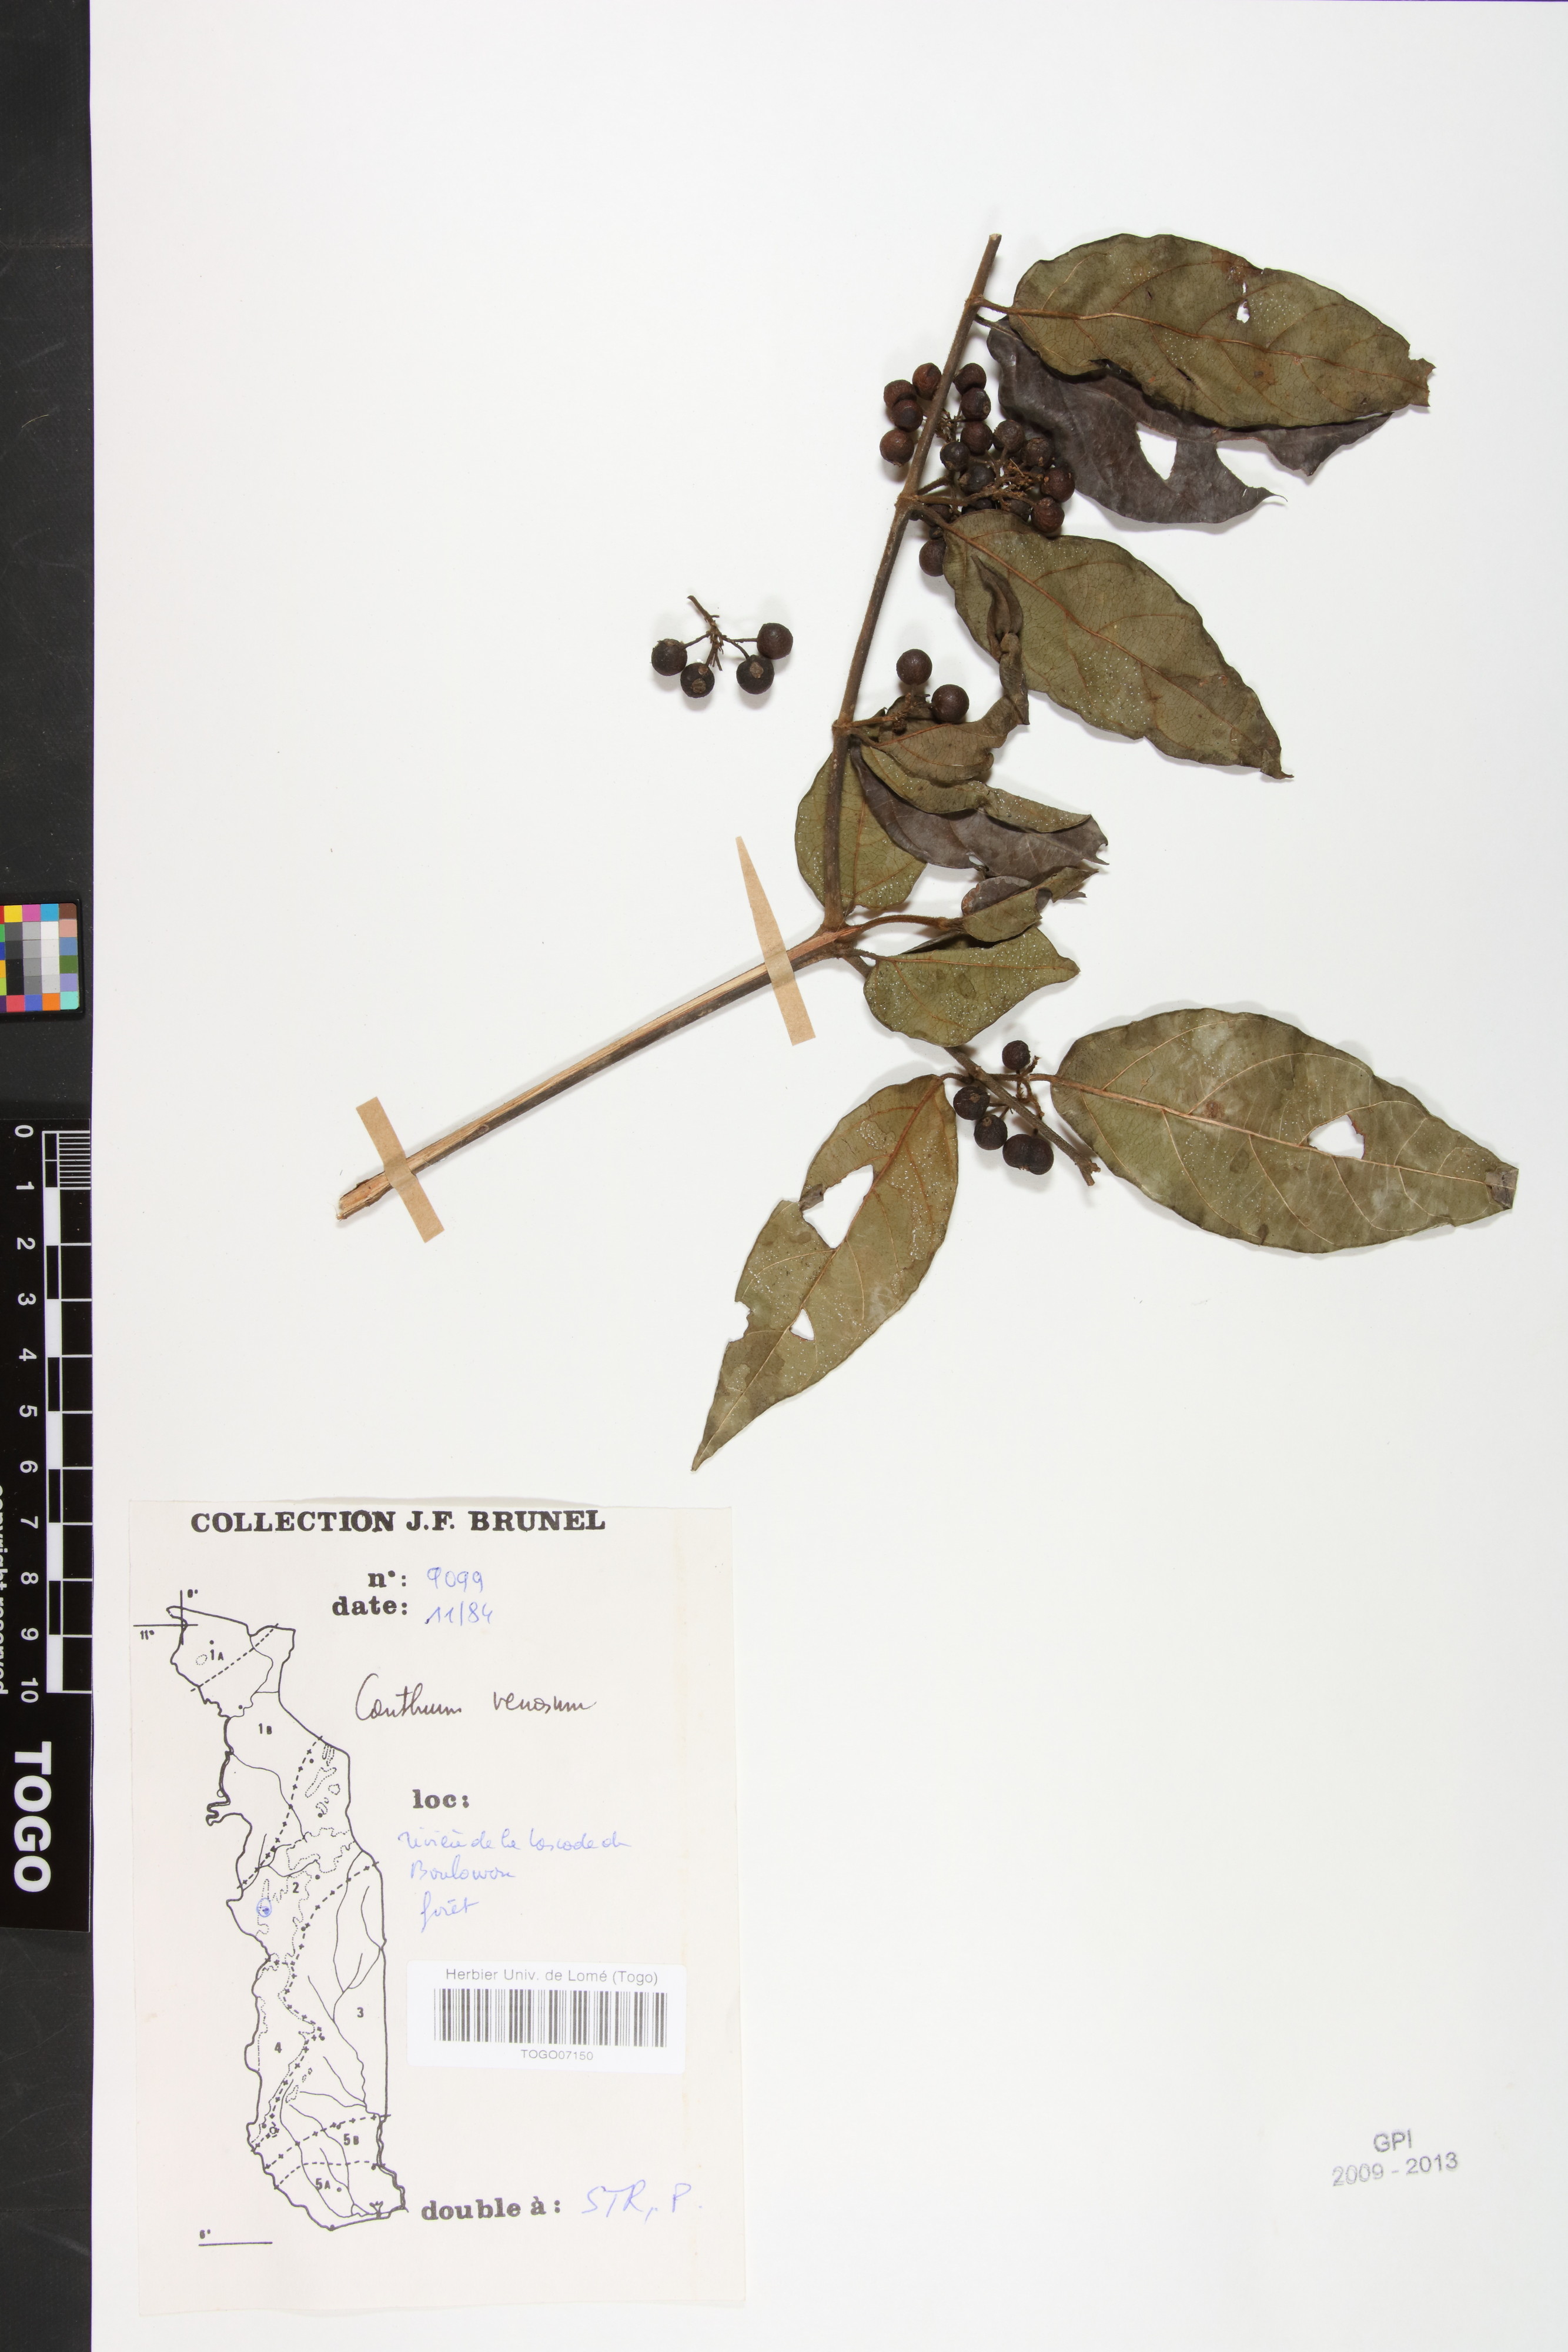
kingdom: Plantae
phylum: Tracheophyta
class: Magnoliopsida
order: Gentianales
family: Rubiaceae
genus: Keetia
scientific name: Keetia venosa
